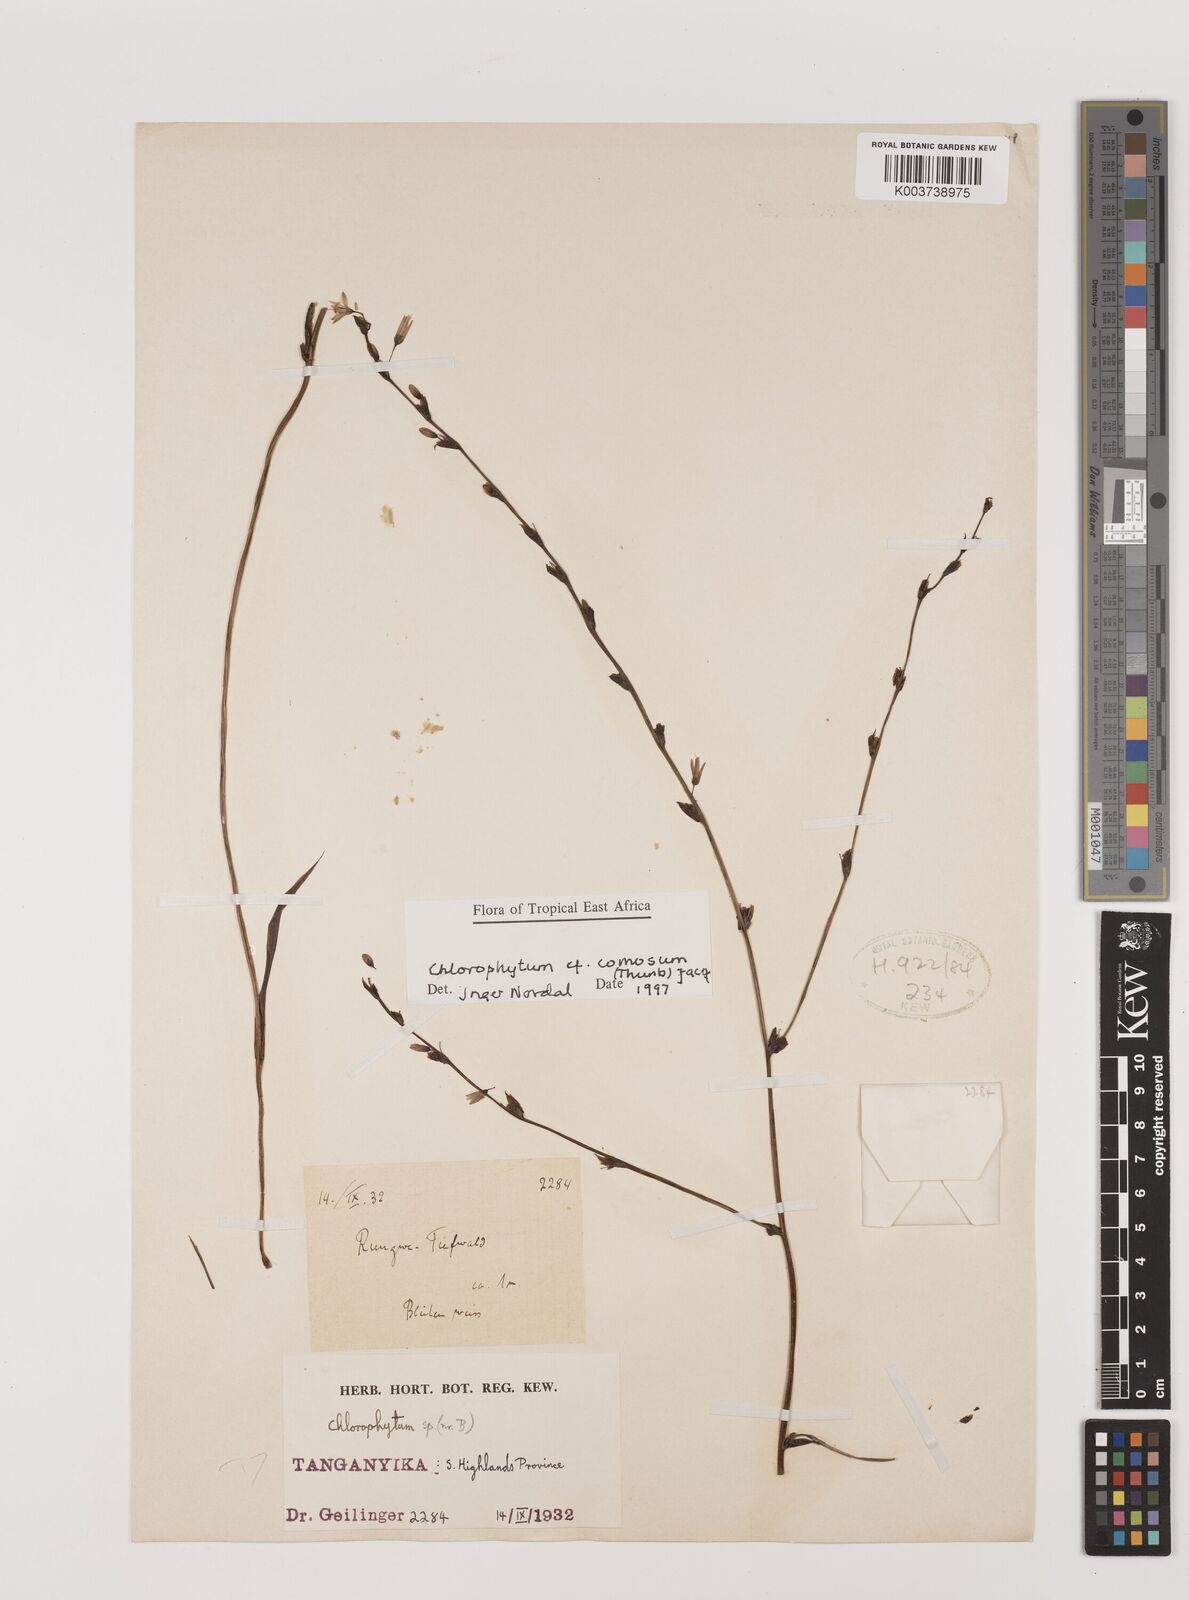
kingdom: Plantae
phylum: Tracheophyta
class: Liliopsida
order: Asparagales
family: Asparagaceae
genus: Chlorophytum
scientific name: Chlorophytum comosum
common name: Spider plant
